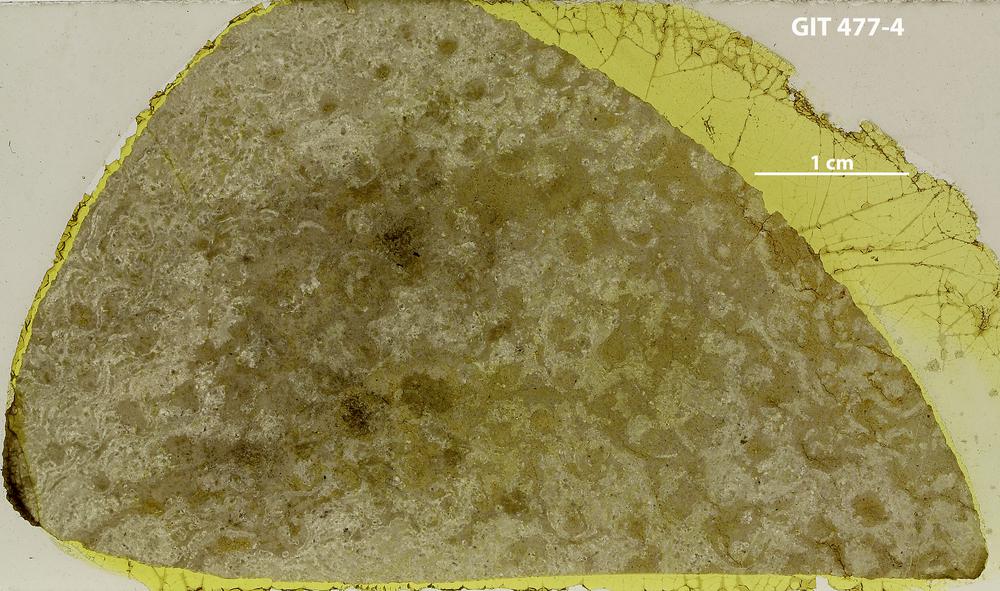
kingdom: Animalia
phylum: Porifera
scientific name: Porifera
